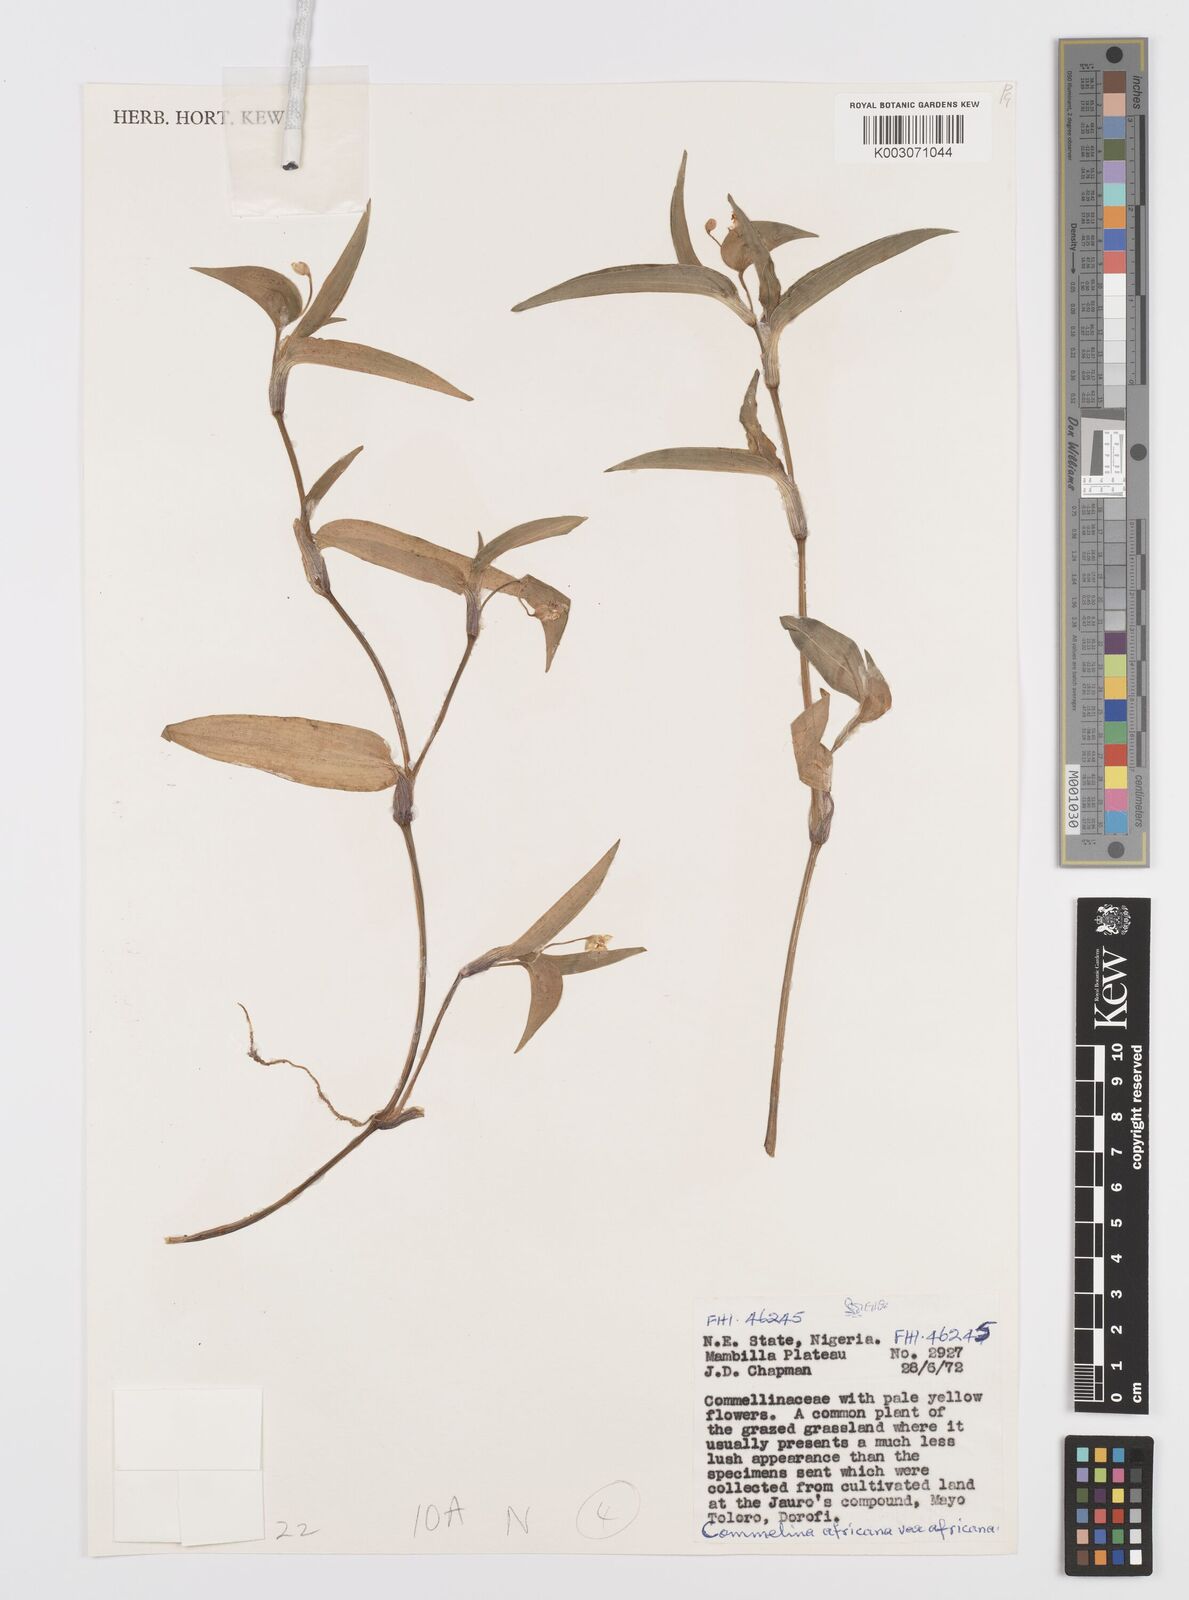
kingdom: Plantae
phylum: Tracheophyta
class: Liliopsida
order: Commelinales
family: Commelinaceae
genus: Commelina
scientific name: Commelina africana
